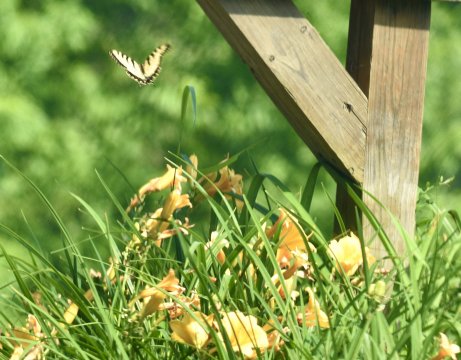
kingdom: Animalia
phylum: Arthropoda
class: Insecta
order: Lepidoptera
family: Papilionidae
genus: Pterourus
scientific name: Pterourus
